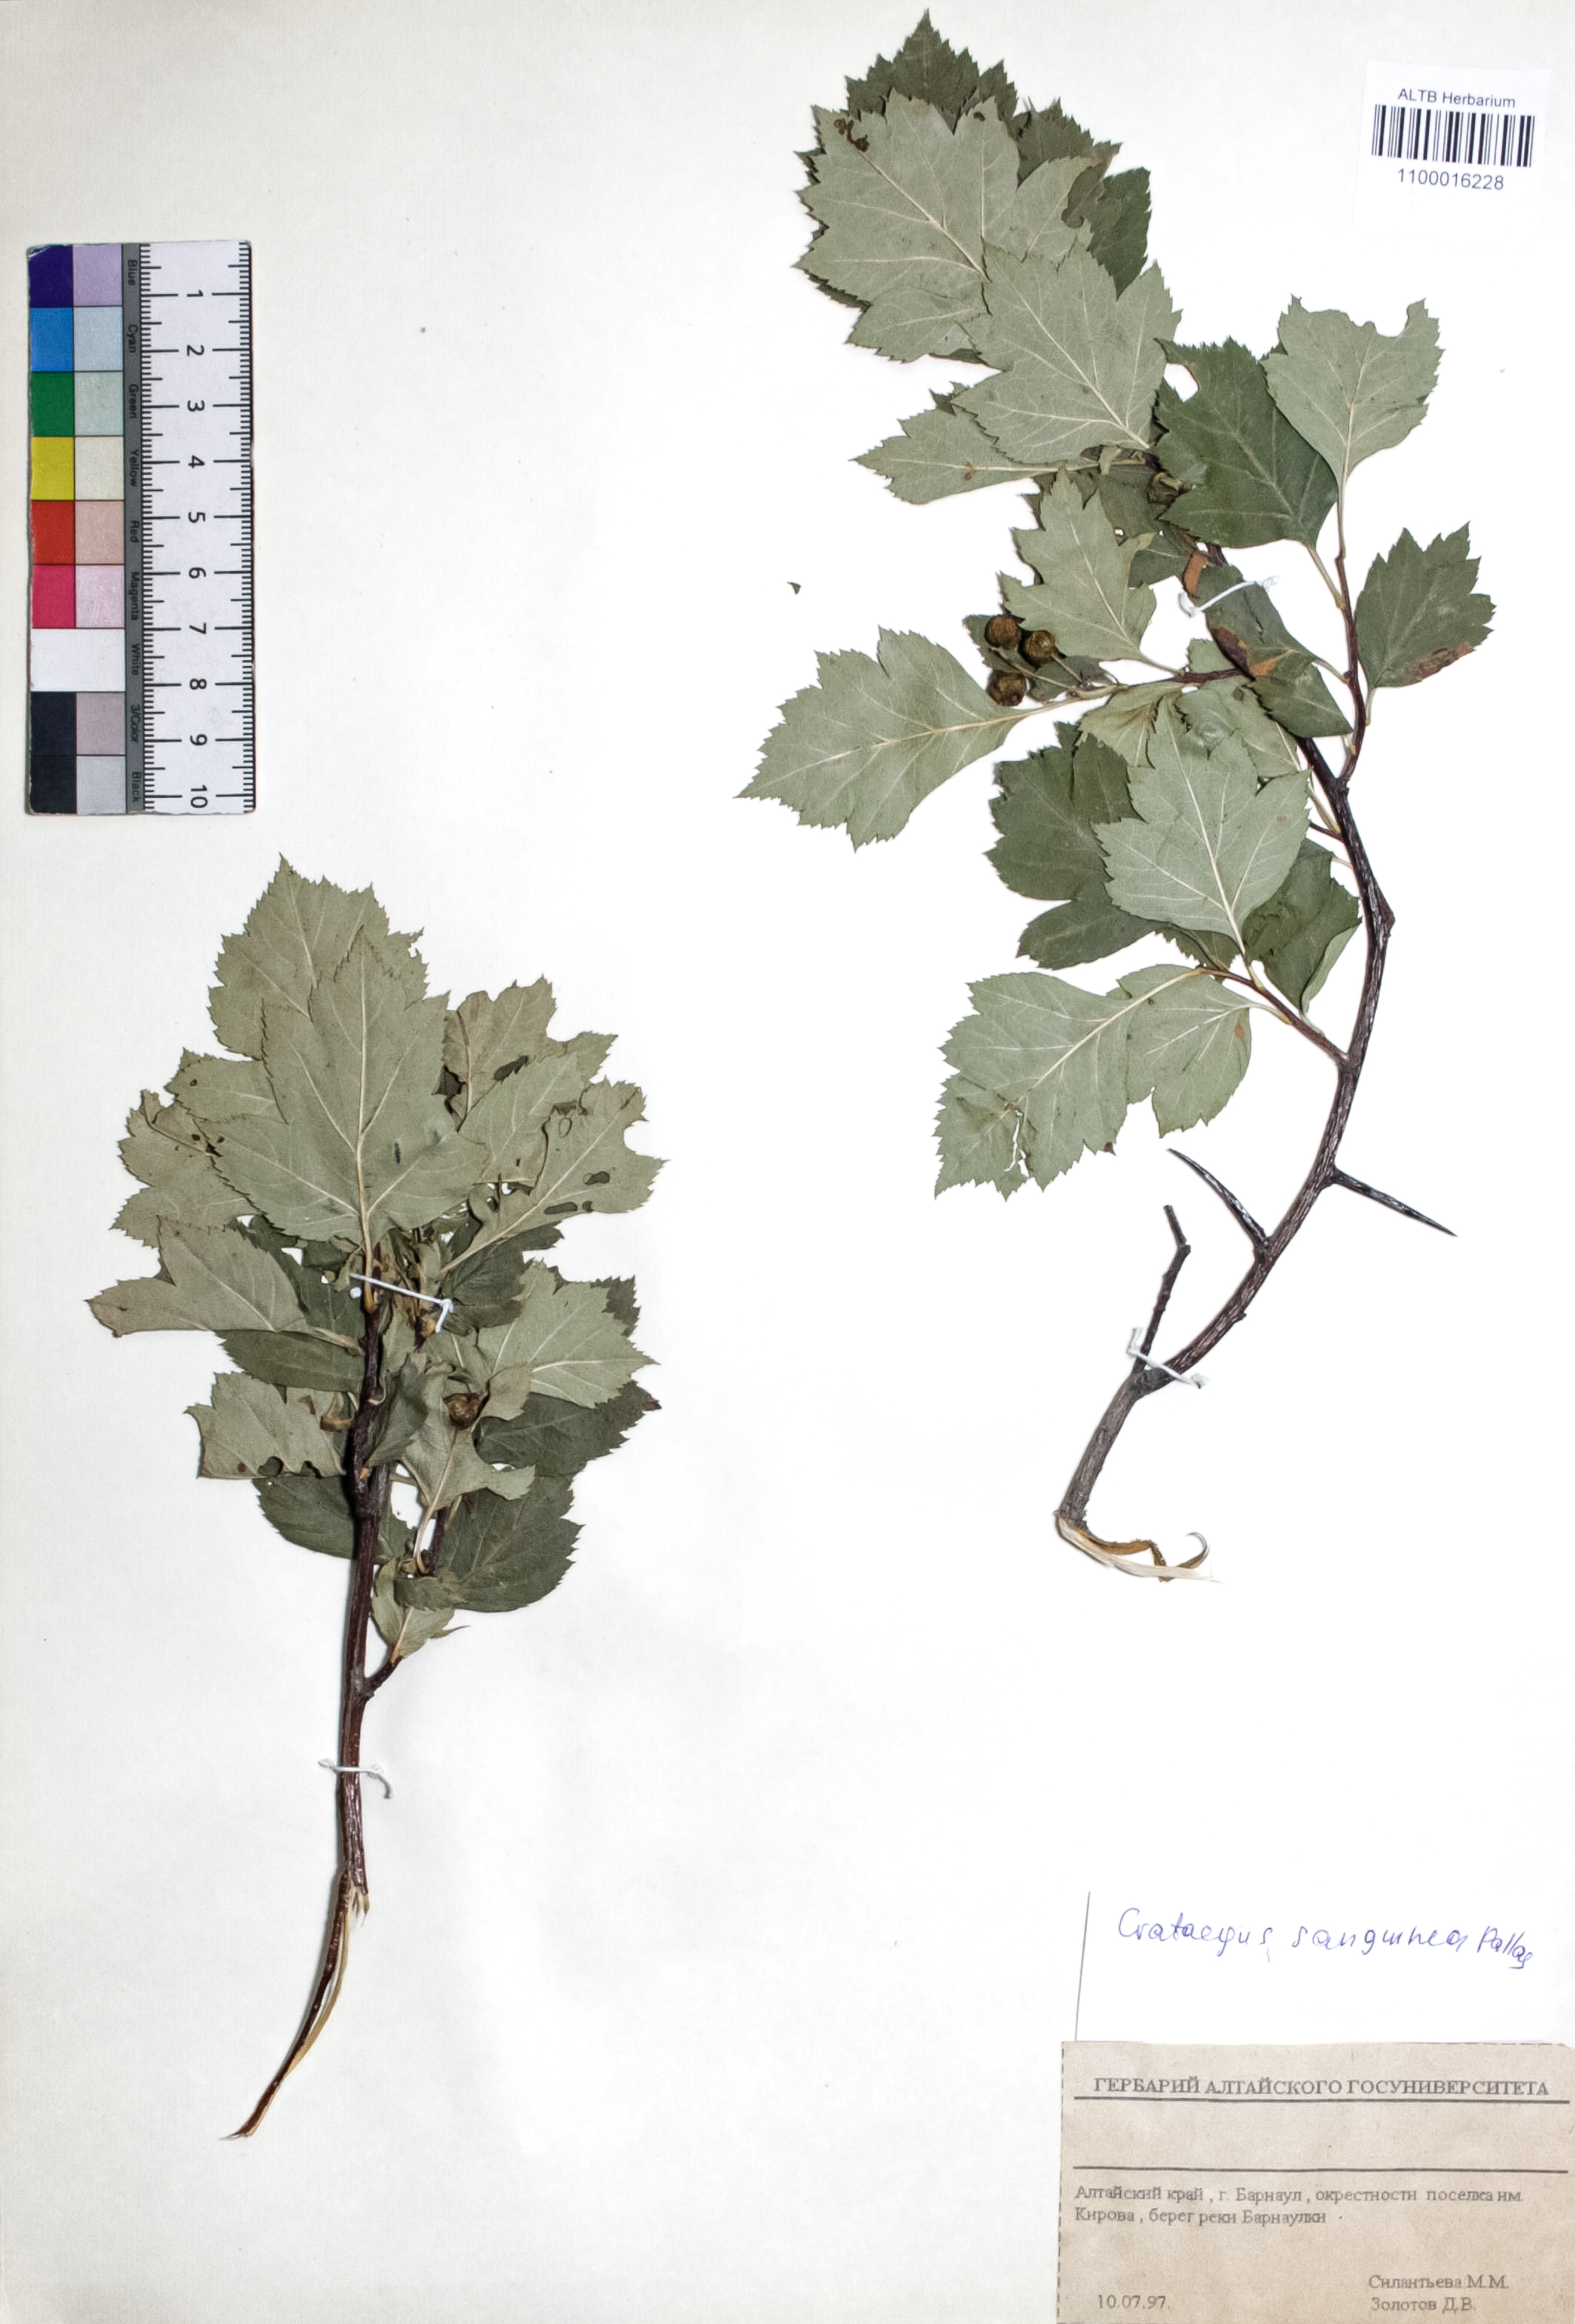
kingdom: Plantae
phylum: Tracheophyta
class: Magnoliopsida
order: Rosales
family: Rosaceae
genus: Crataegus
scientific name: Crataegus sanguinea
